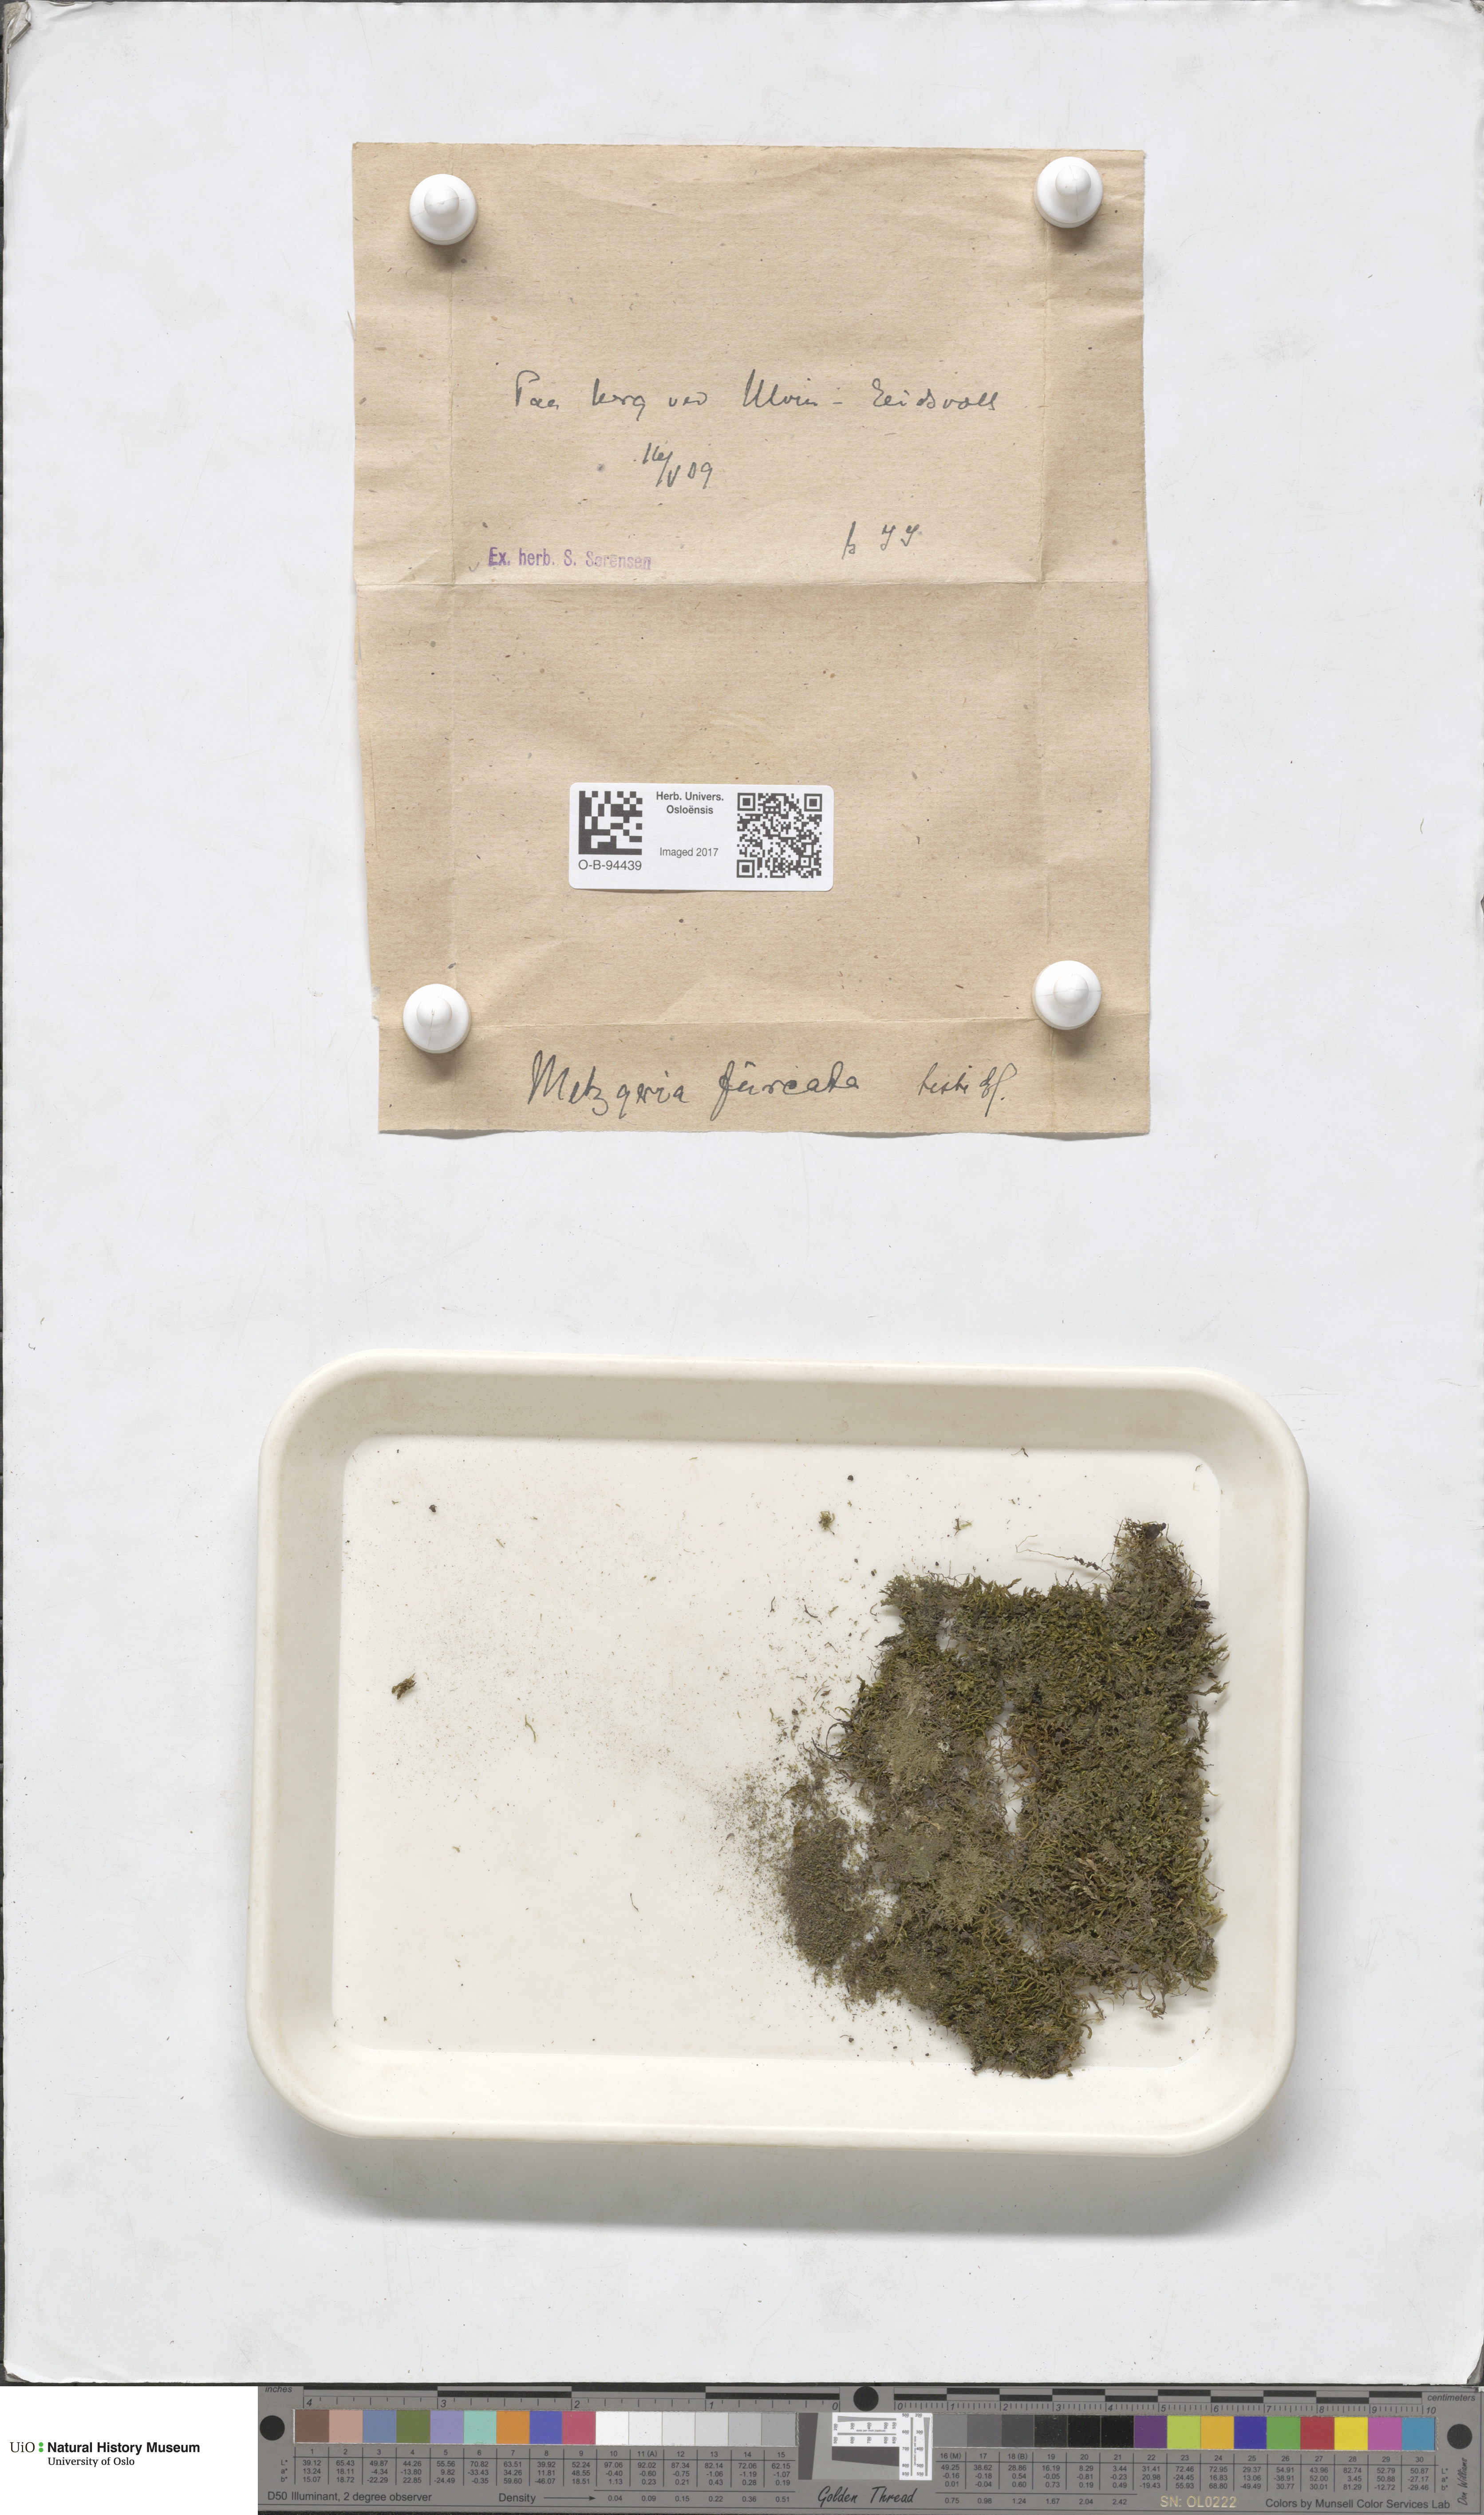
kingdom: Plantae
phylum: Marchantiophyta
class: Jungermanniopsida
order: Metzgeriales
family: Metzgeriaceae
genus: Metzgeria
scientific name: Metzgeria furcata
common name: Forked veilwort
